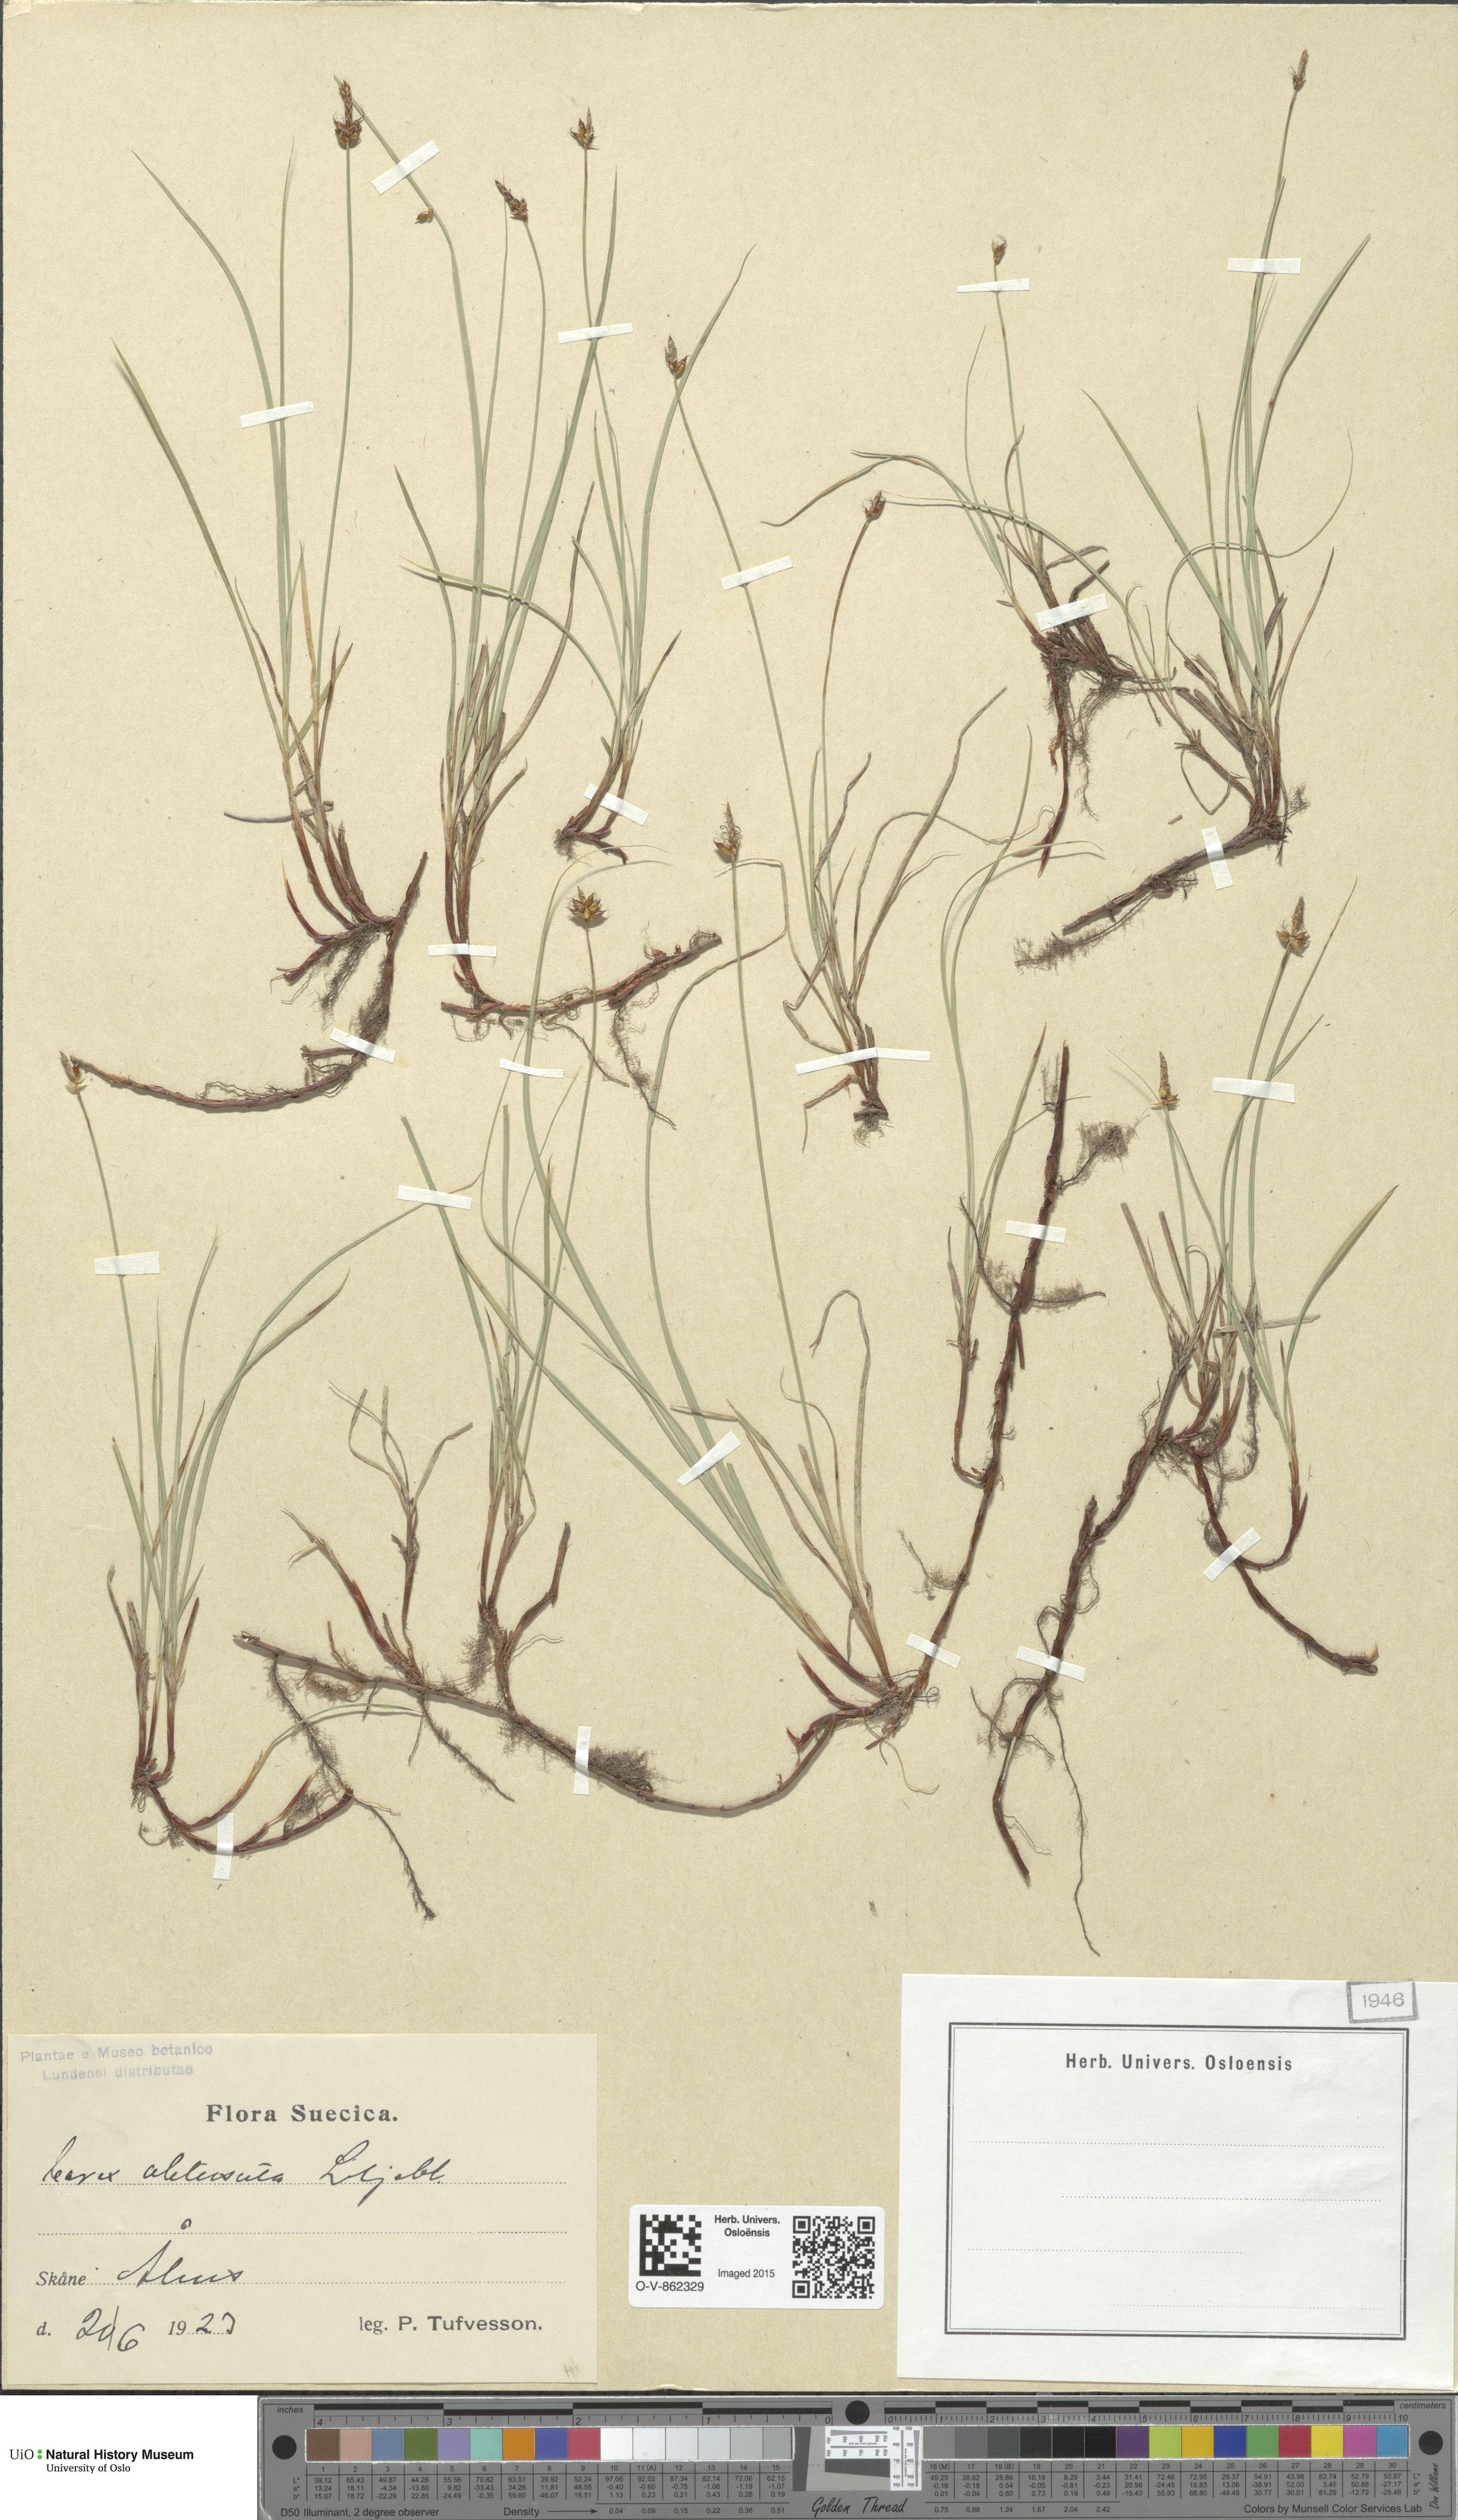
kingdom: Plantae
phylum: Tracheophyta
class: Liliopsida
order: Poales
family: Cyperaceae
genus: Carex
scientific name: Carex obtusata
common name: Blunt sedge
